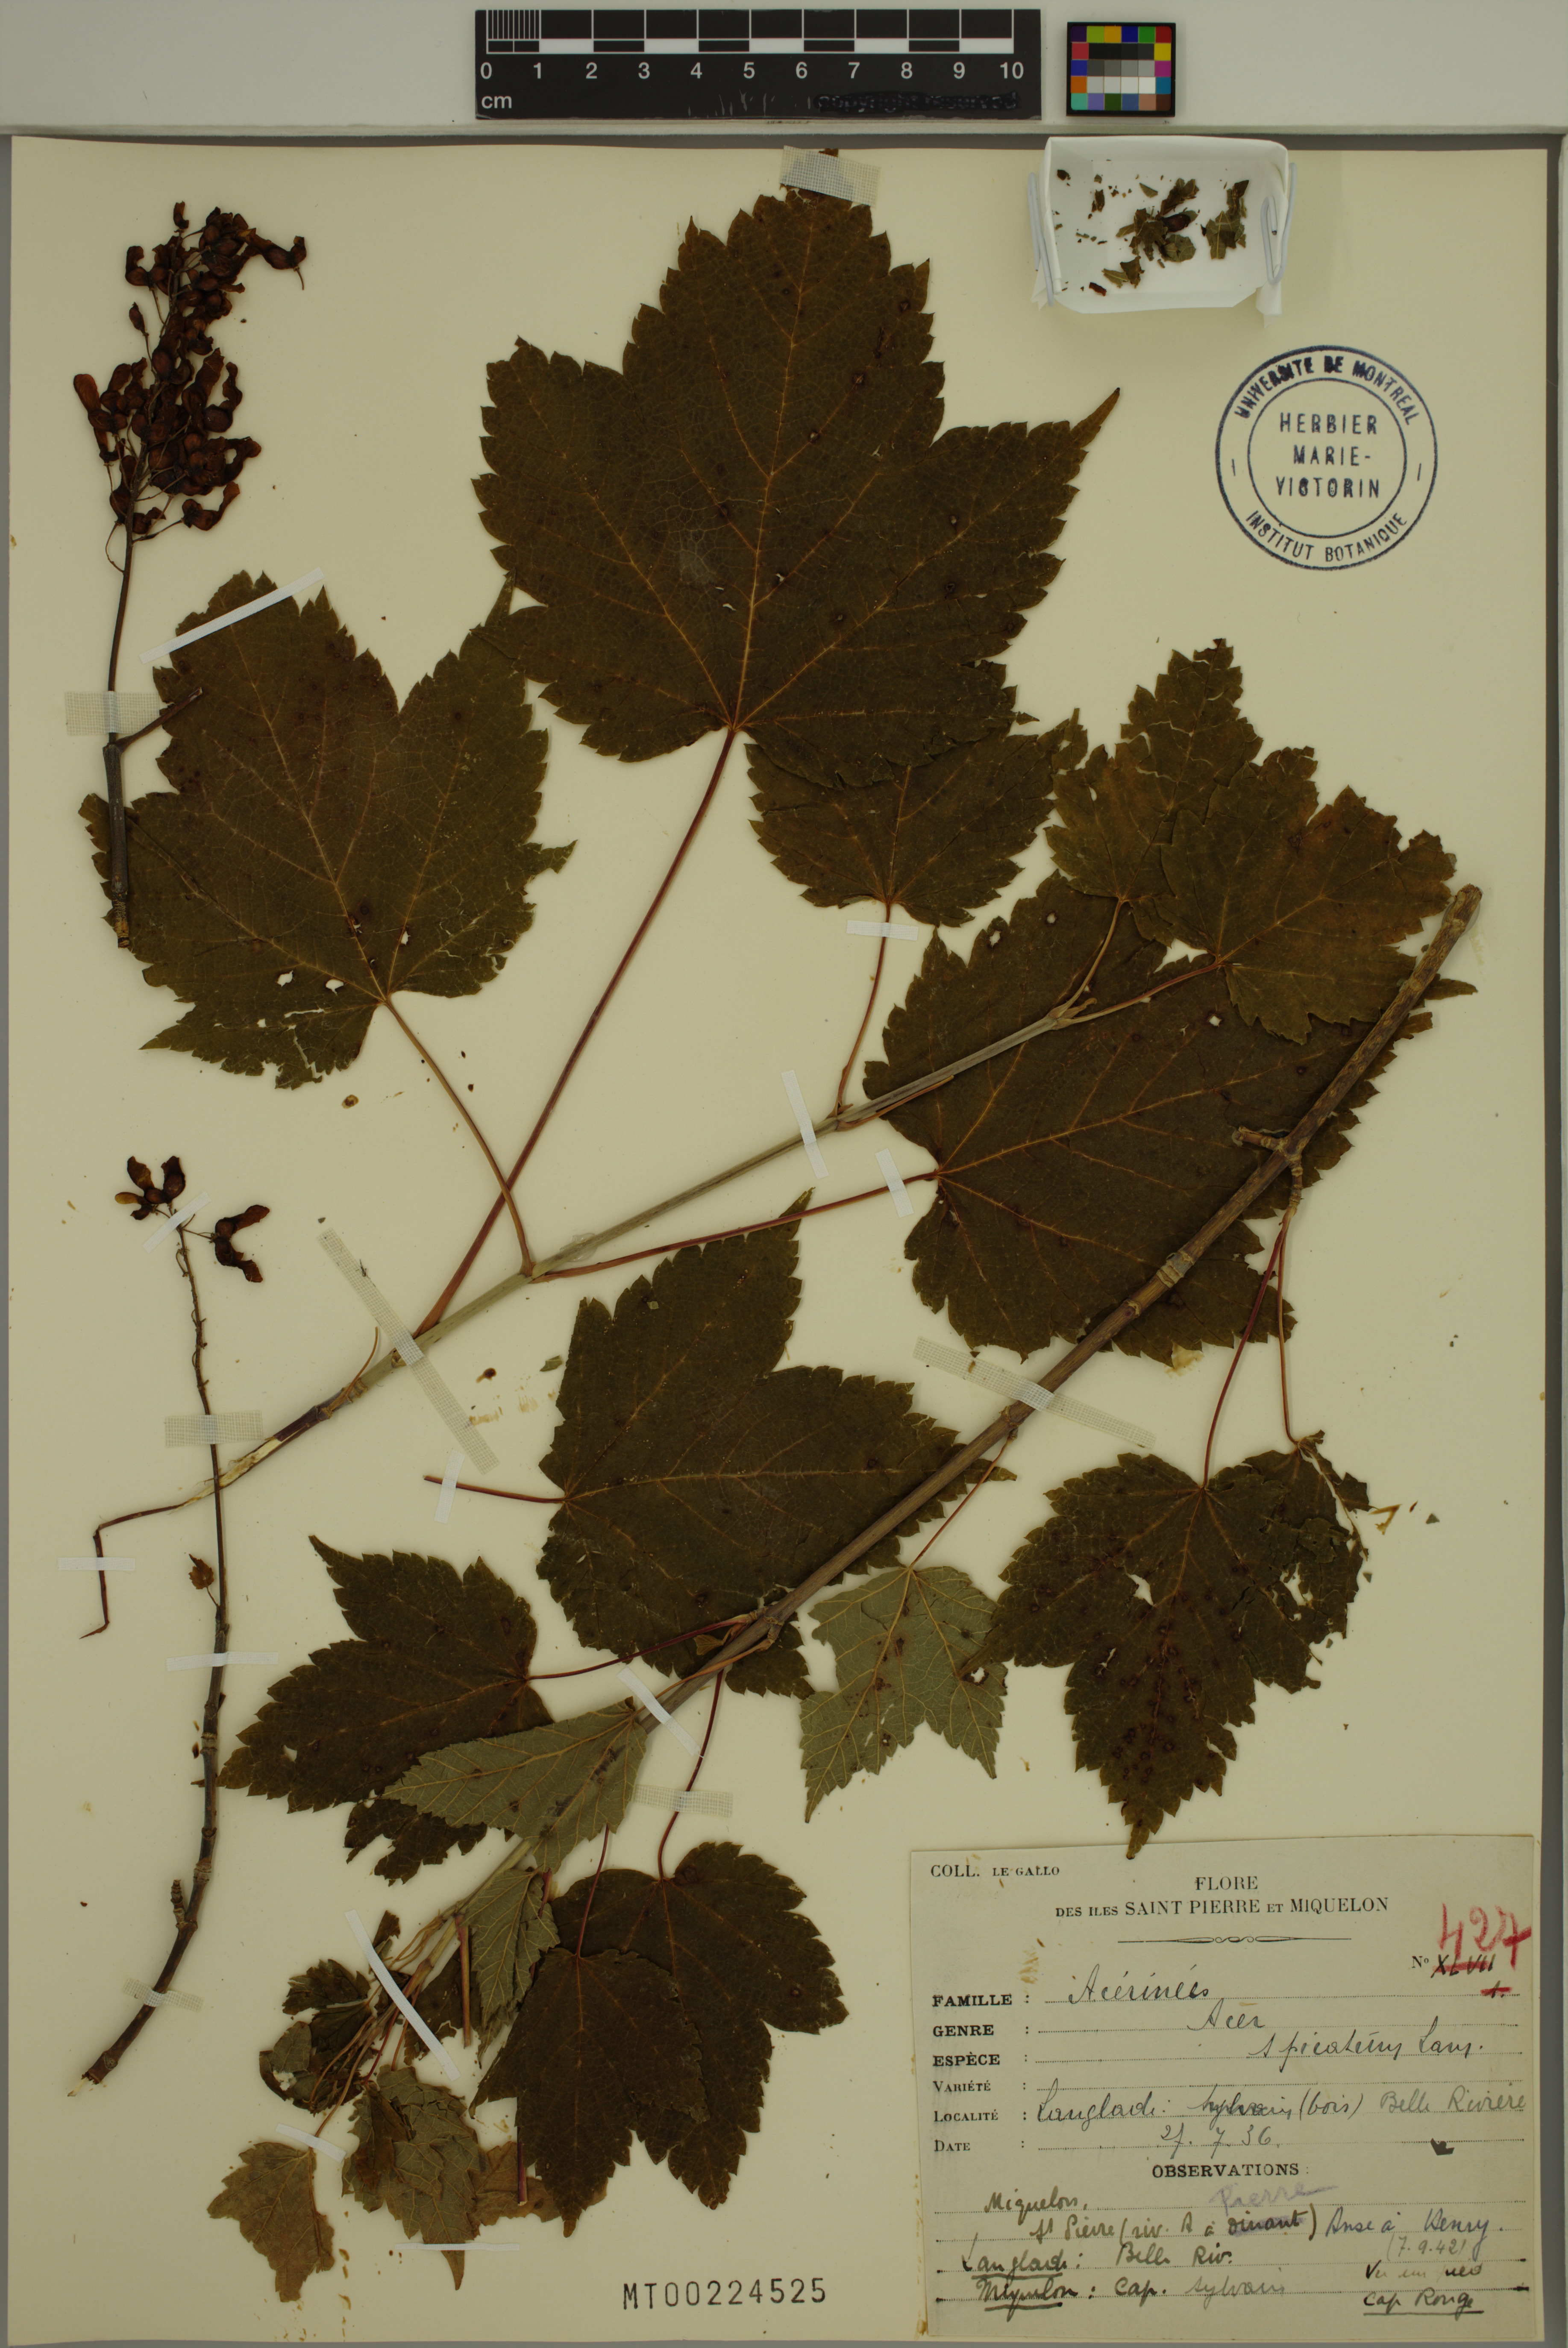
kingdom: Plantae
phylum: Tracheophyta
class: Magnoliopsida
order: Sapindales
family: Sapindaceae
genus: Acer
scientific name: Acer spicatum
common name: Mountain maple
